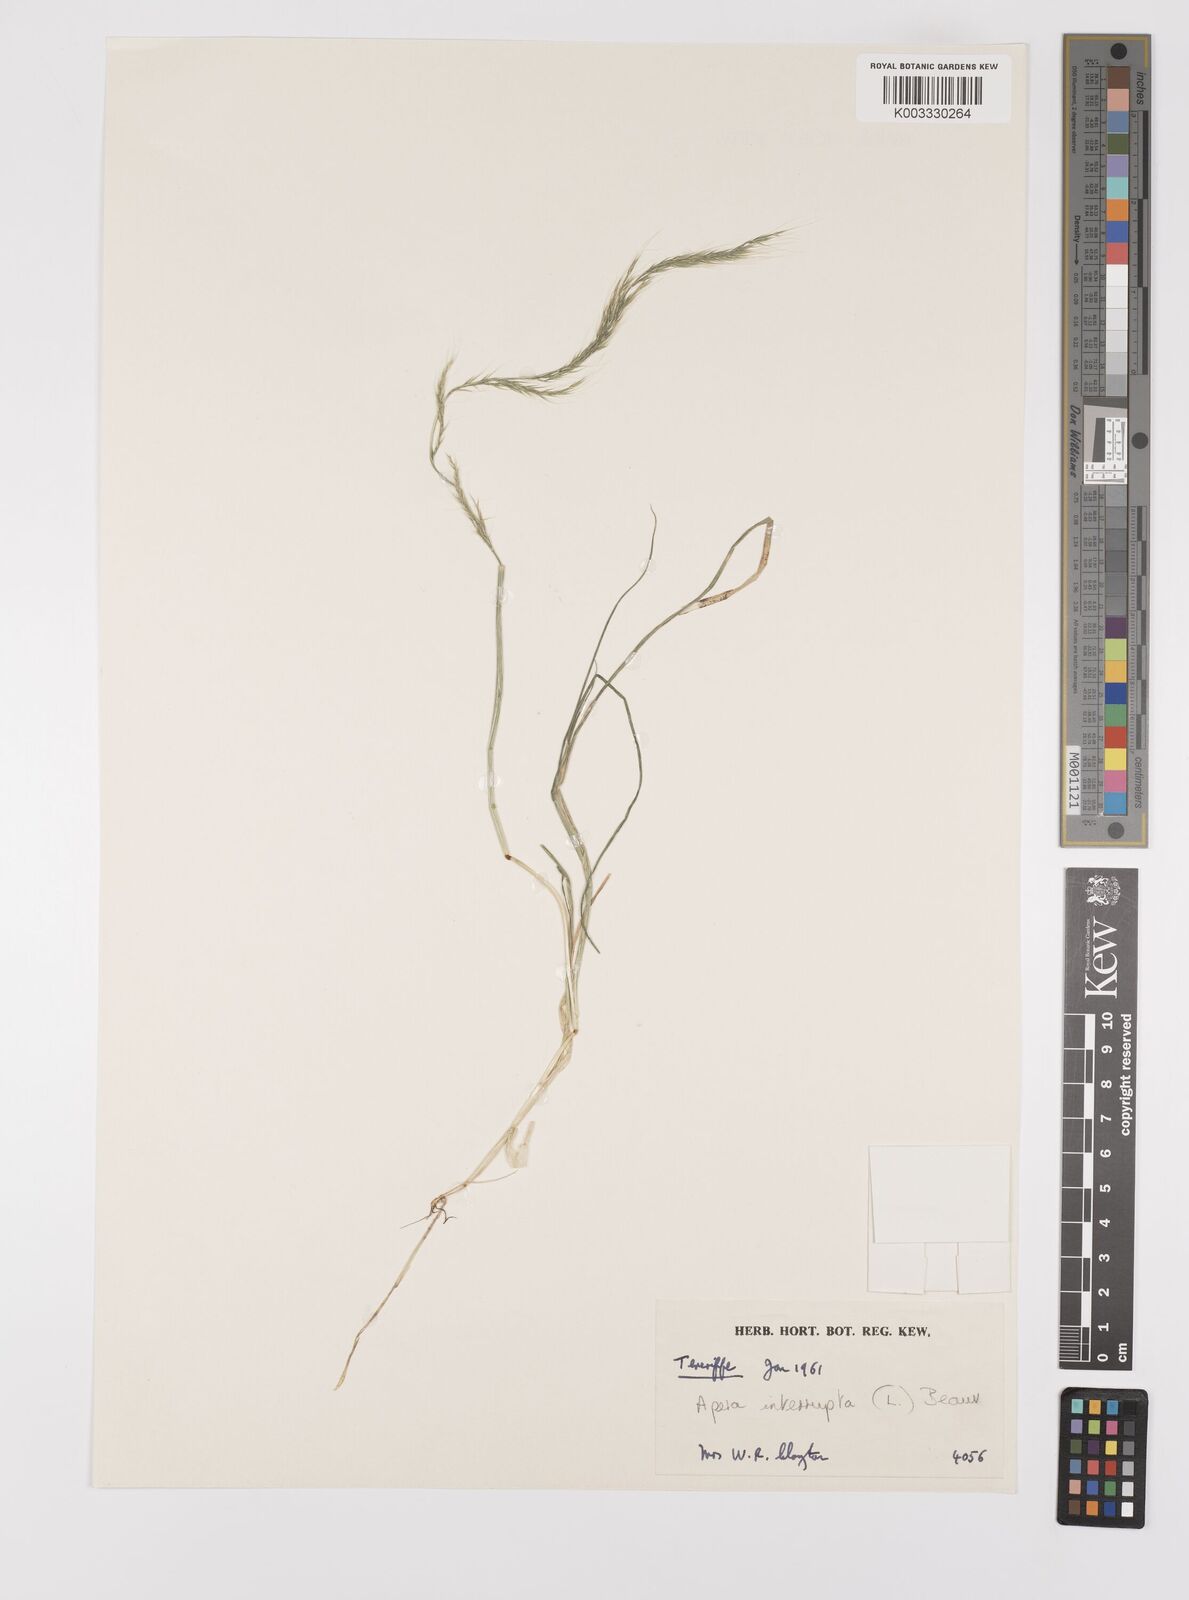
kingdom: Plantae
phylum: Tracheophyta
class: Liliopsida
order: Poales
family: Poaceae
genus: Apera
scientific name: Apera interrupta
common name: Dense silky-bent
